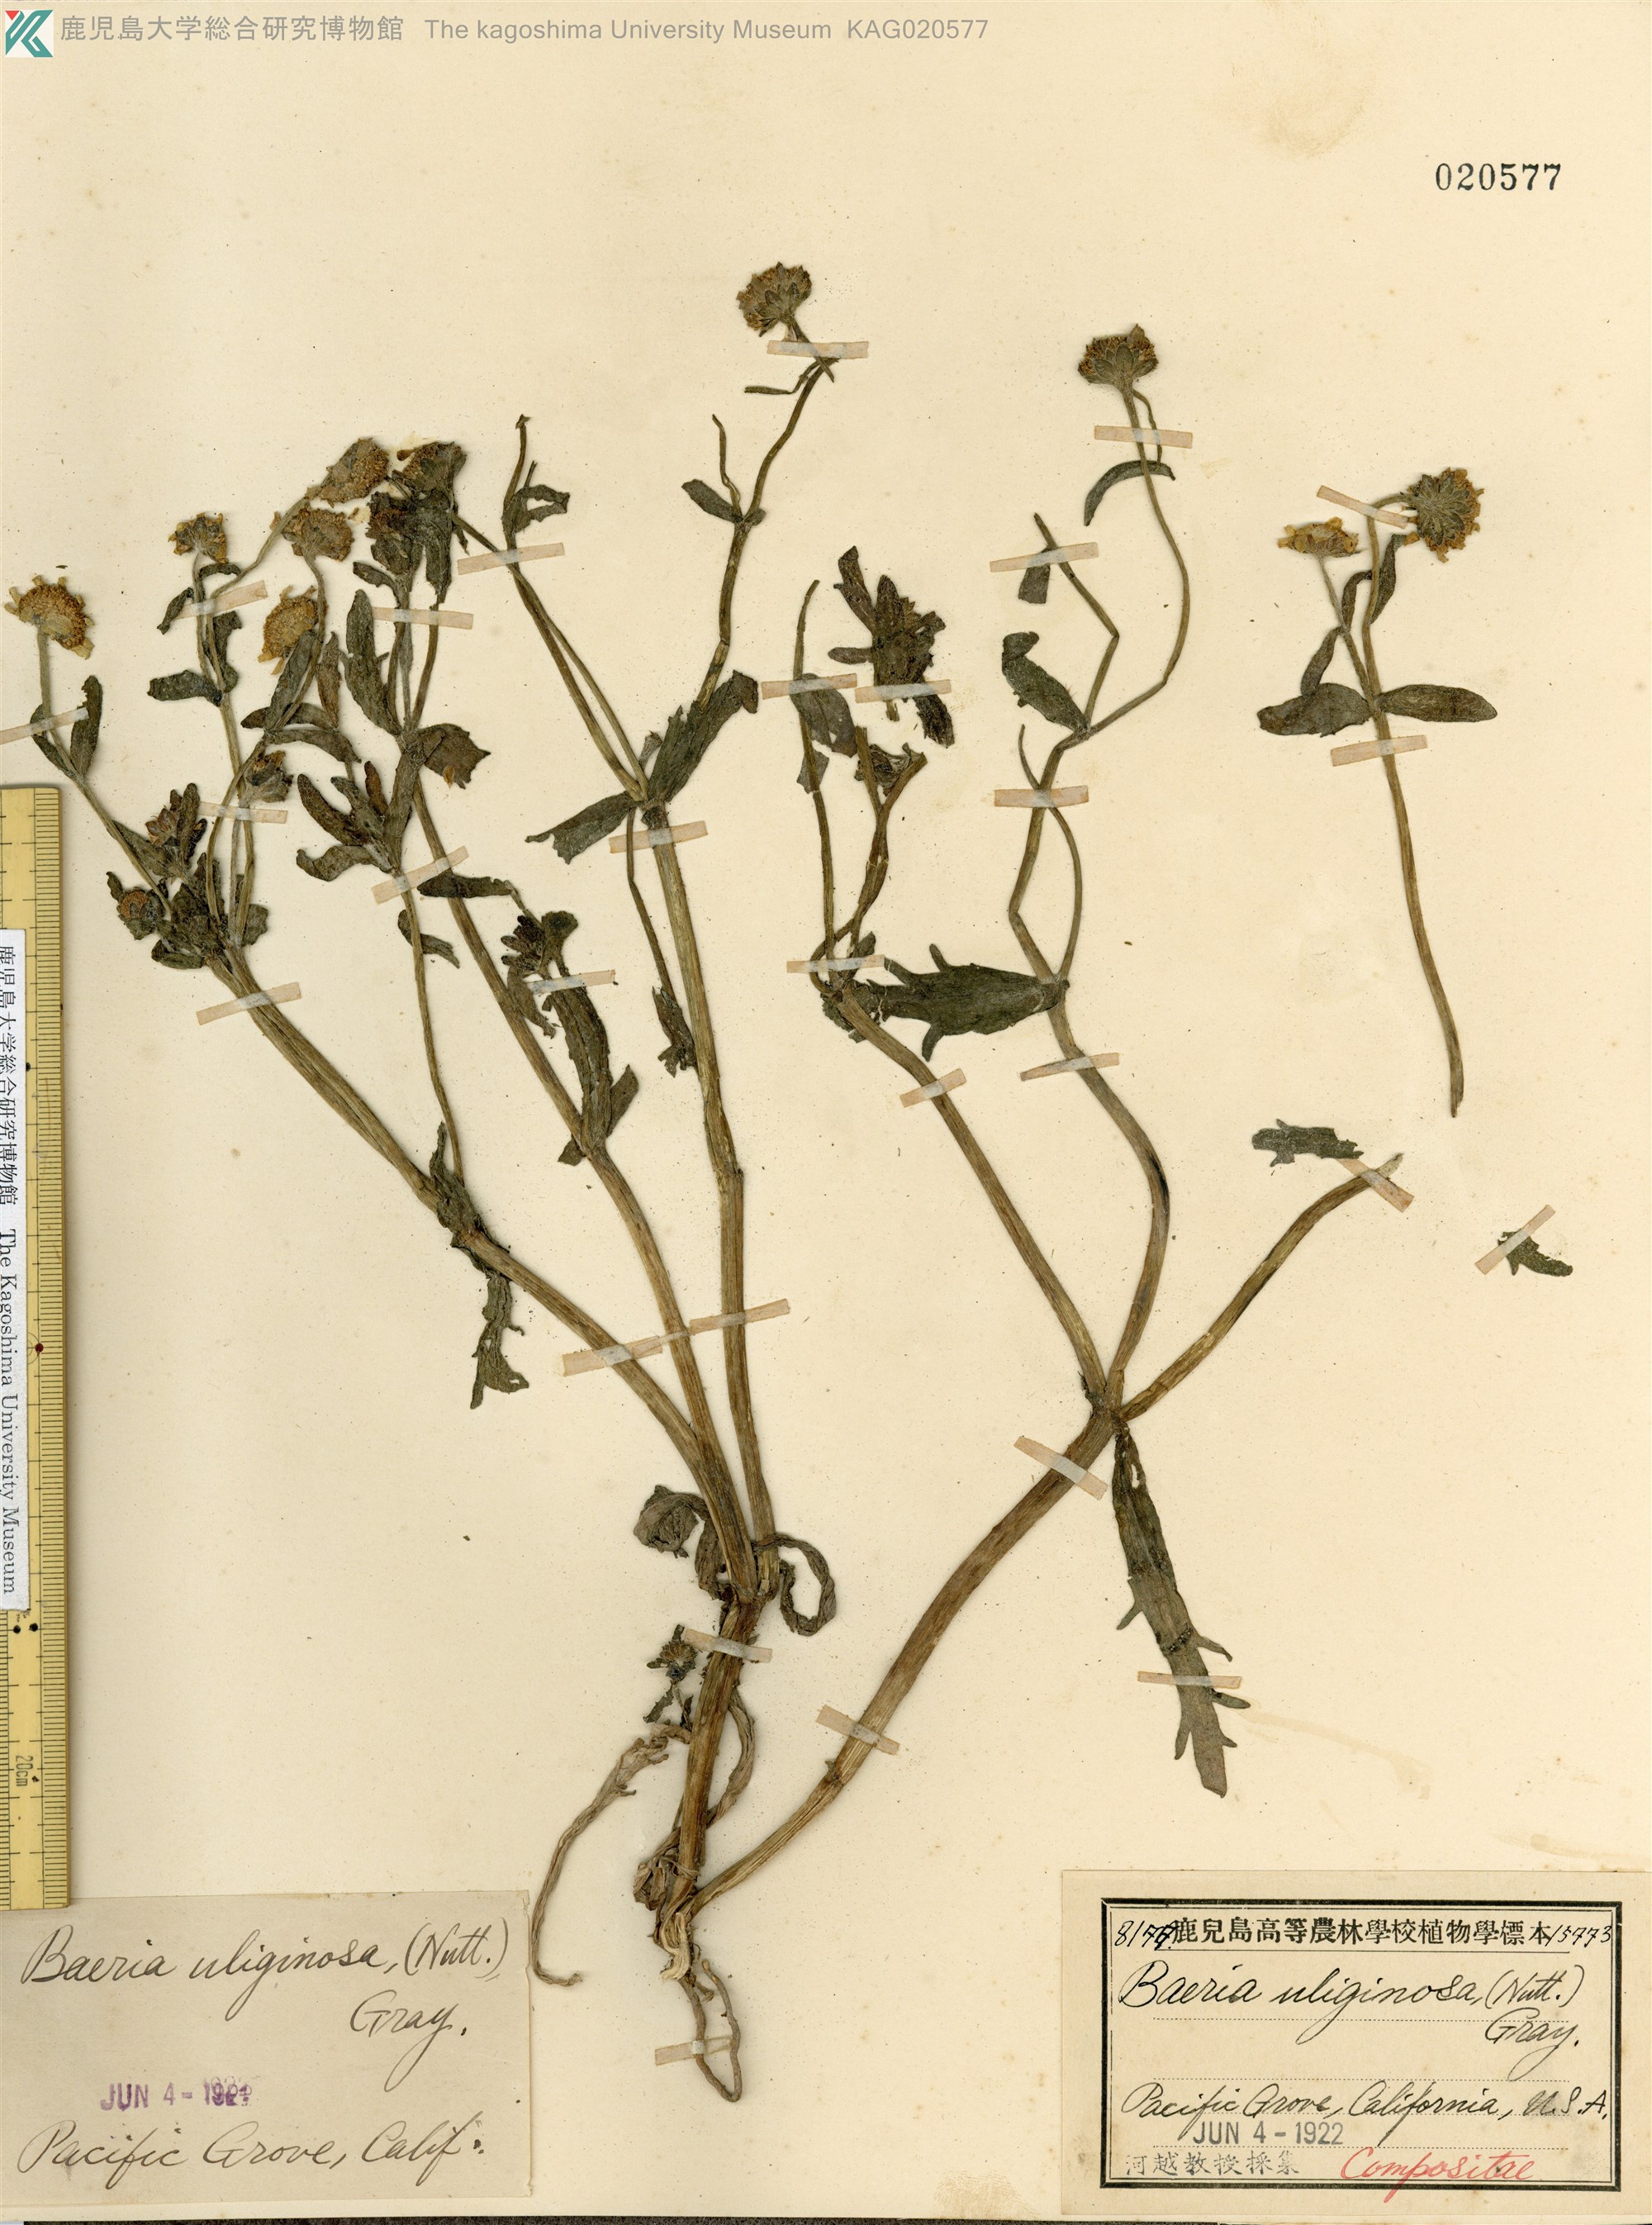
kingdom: Plantae
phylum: Tracheophyta
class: Magnoliopsida
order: Asterales
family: Asteraceae
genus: Lasthenia
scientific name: Lasthenia minor
